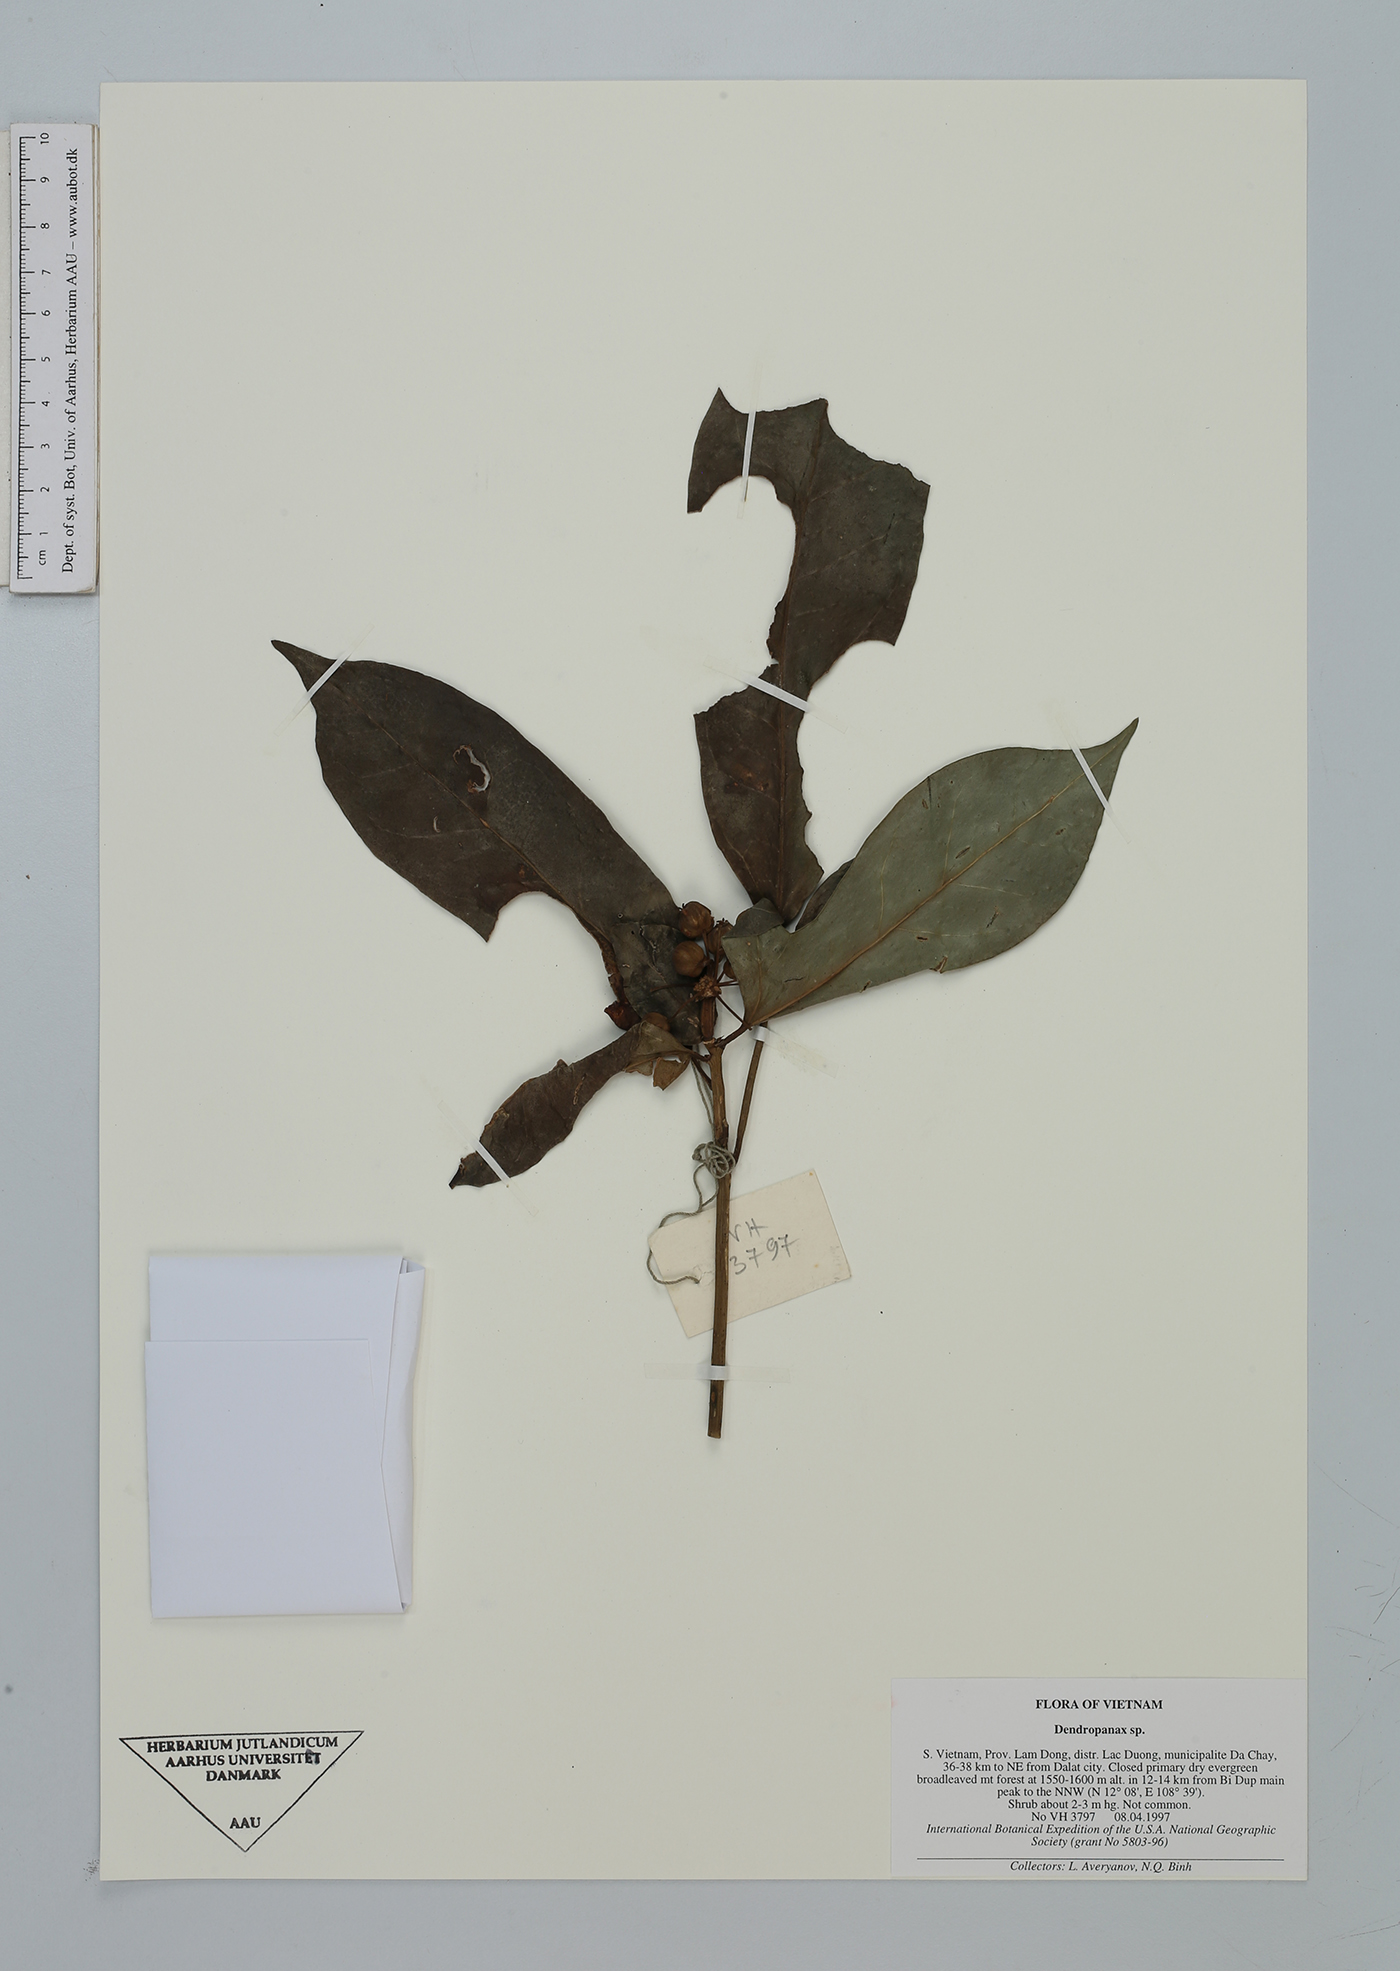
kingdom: Plantae
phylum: Tracheophyta
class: Magnoliopsida
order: Apiales
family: Araliaceae
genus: Dendropanax
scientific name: Dendropanax
